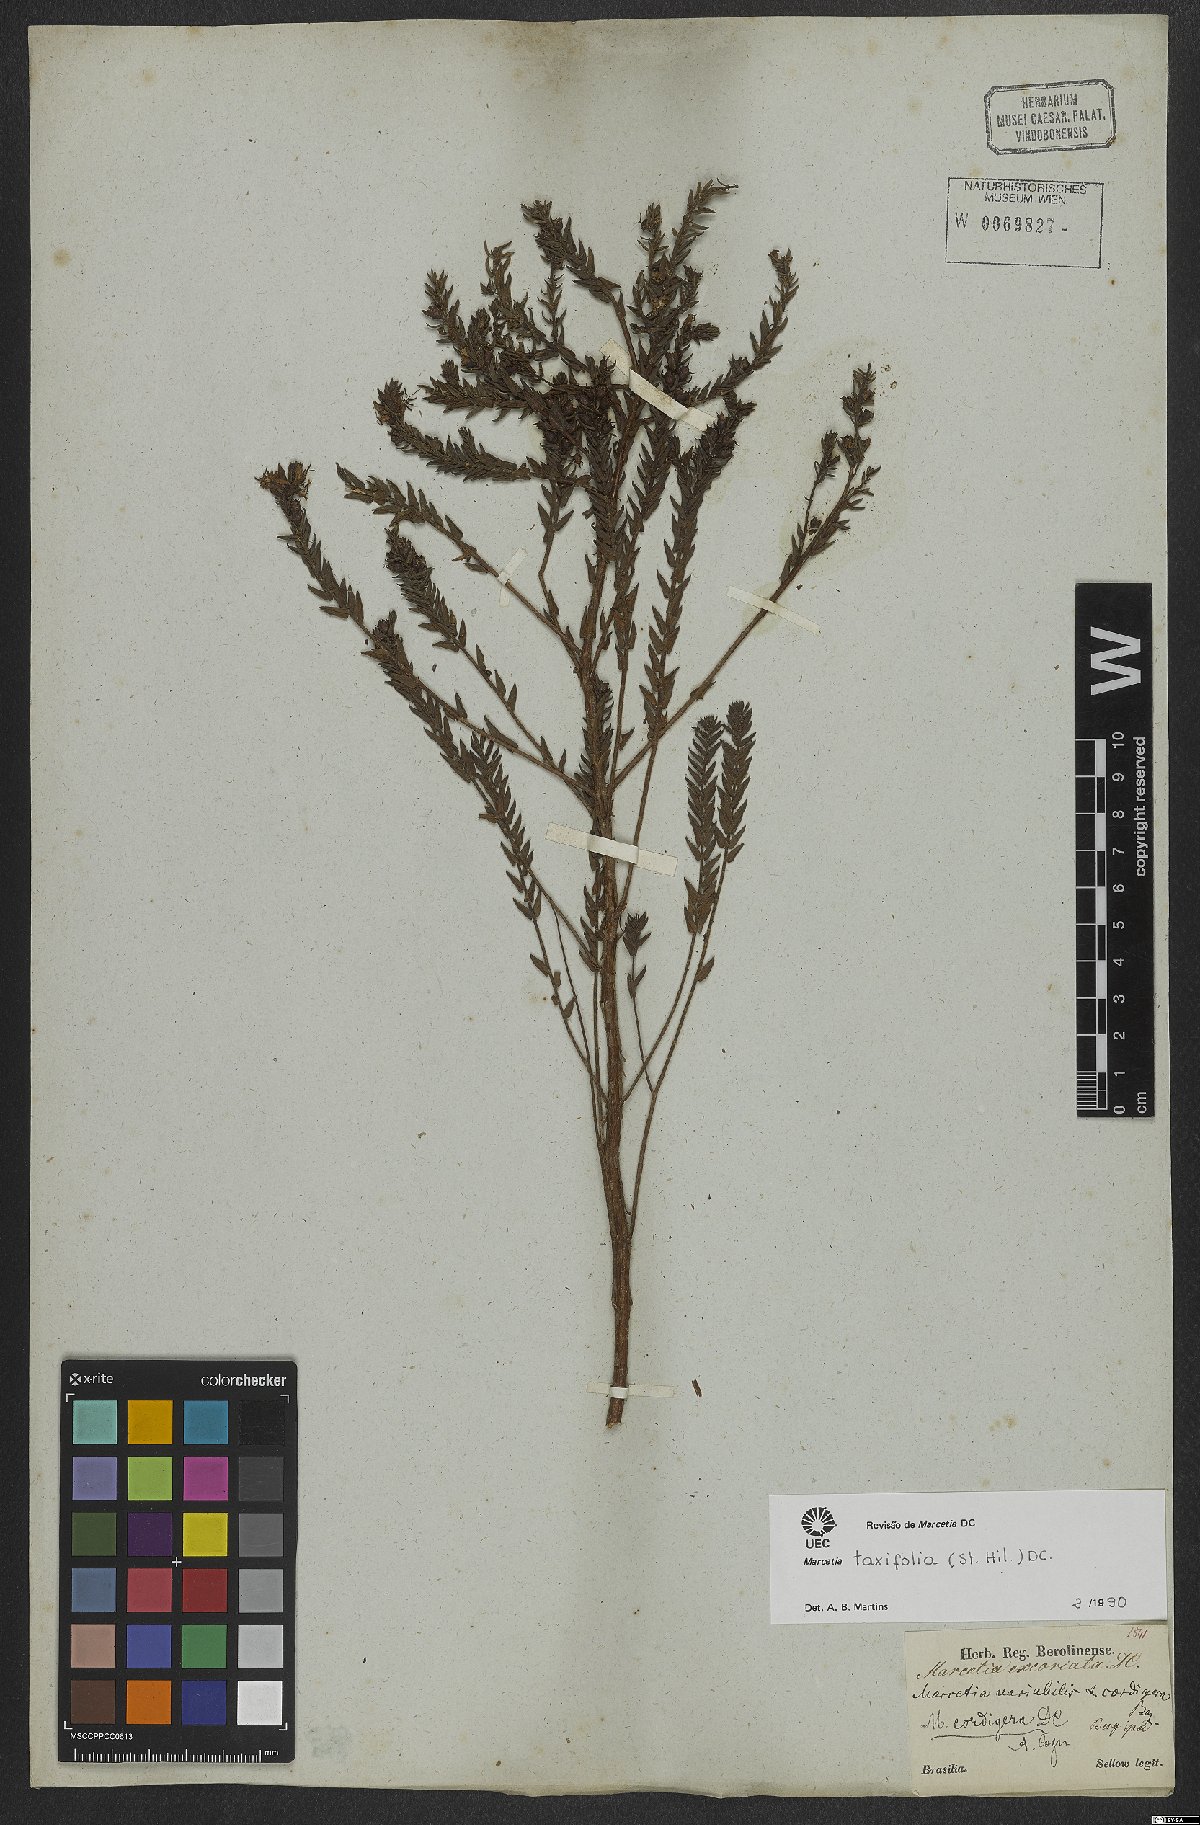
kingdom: Plantae
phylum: Tracheophyta
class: Magnoliopsida
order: Myrtales
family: Melastomataceae
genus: Marcetia
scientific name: Marcetia taxifolia
